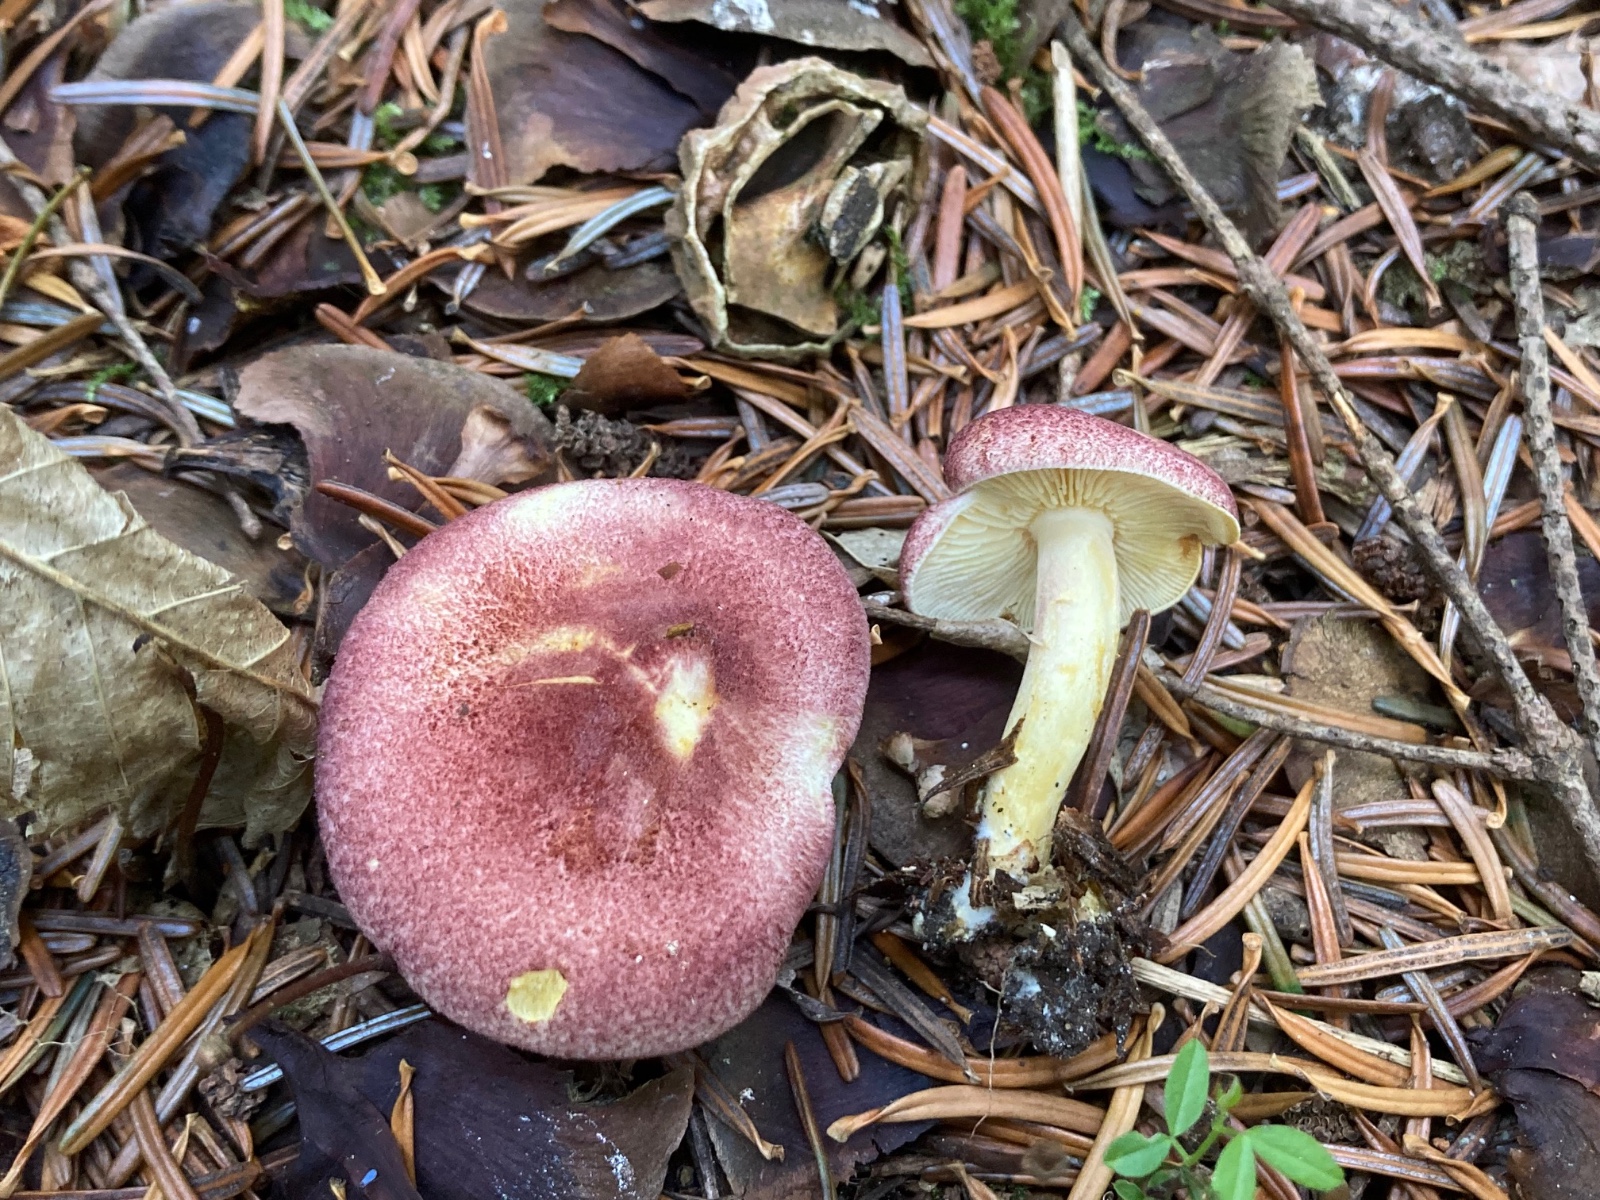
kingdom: Fungi
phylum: Basidiomycota
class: Agaricomycetes
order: Agaricales
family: Tricholomataceae
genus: Tricholomopsis
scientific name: Tricholomopsis rutilans
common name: purpur-væbnerhat
